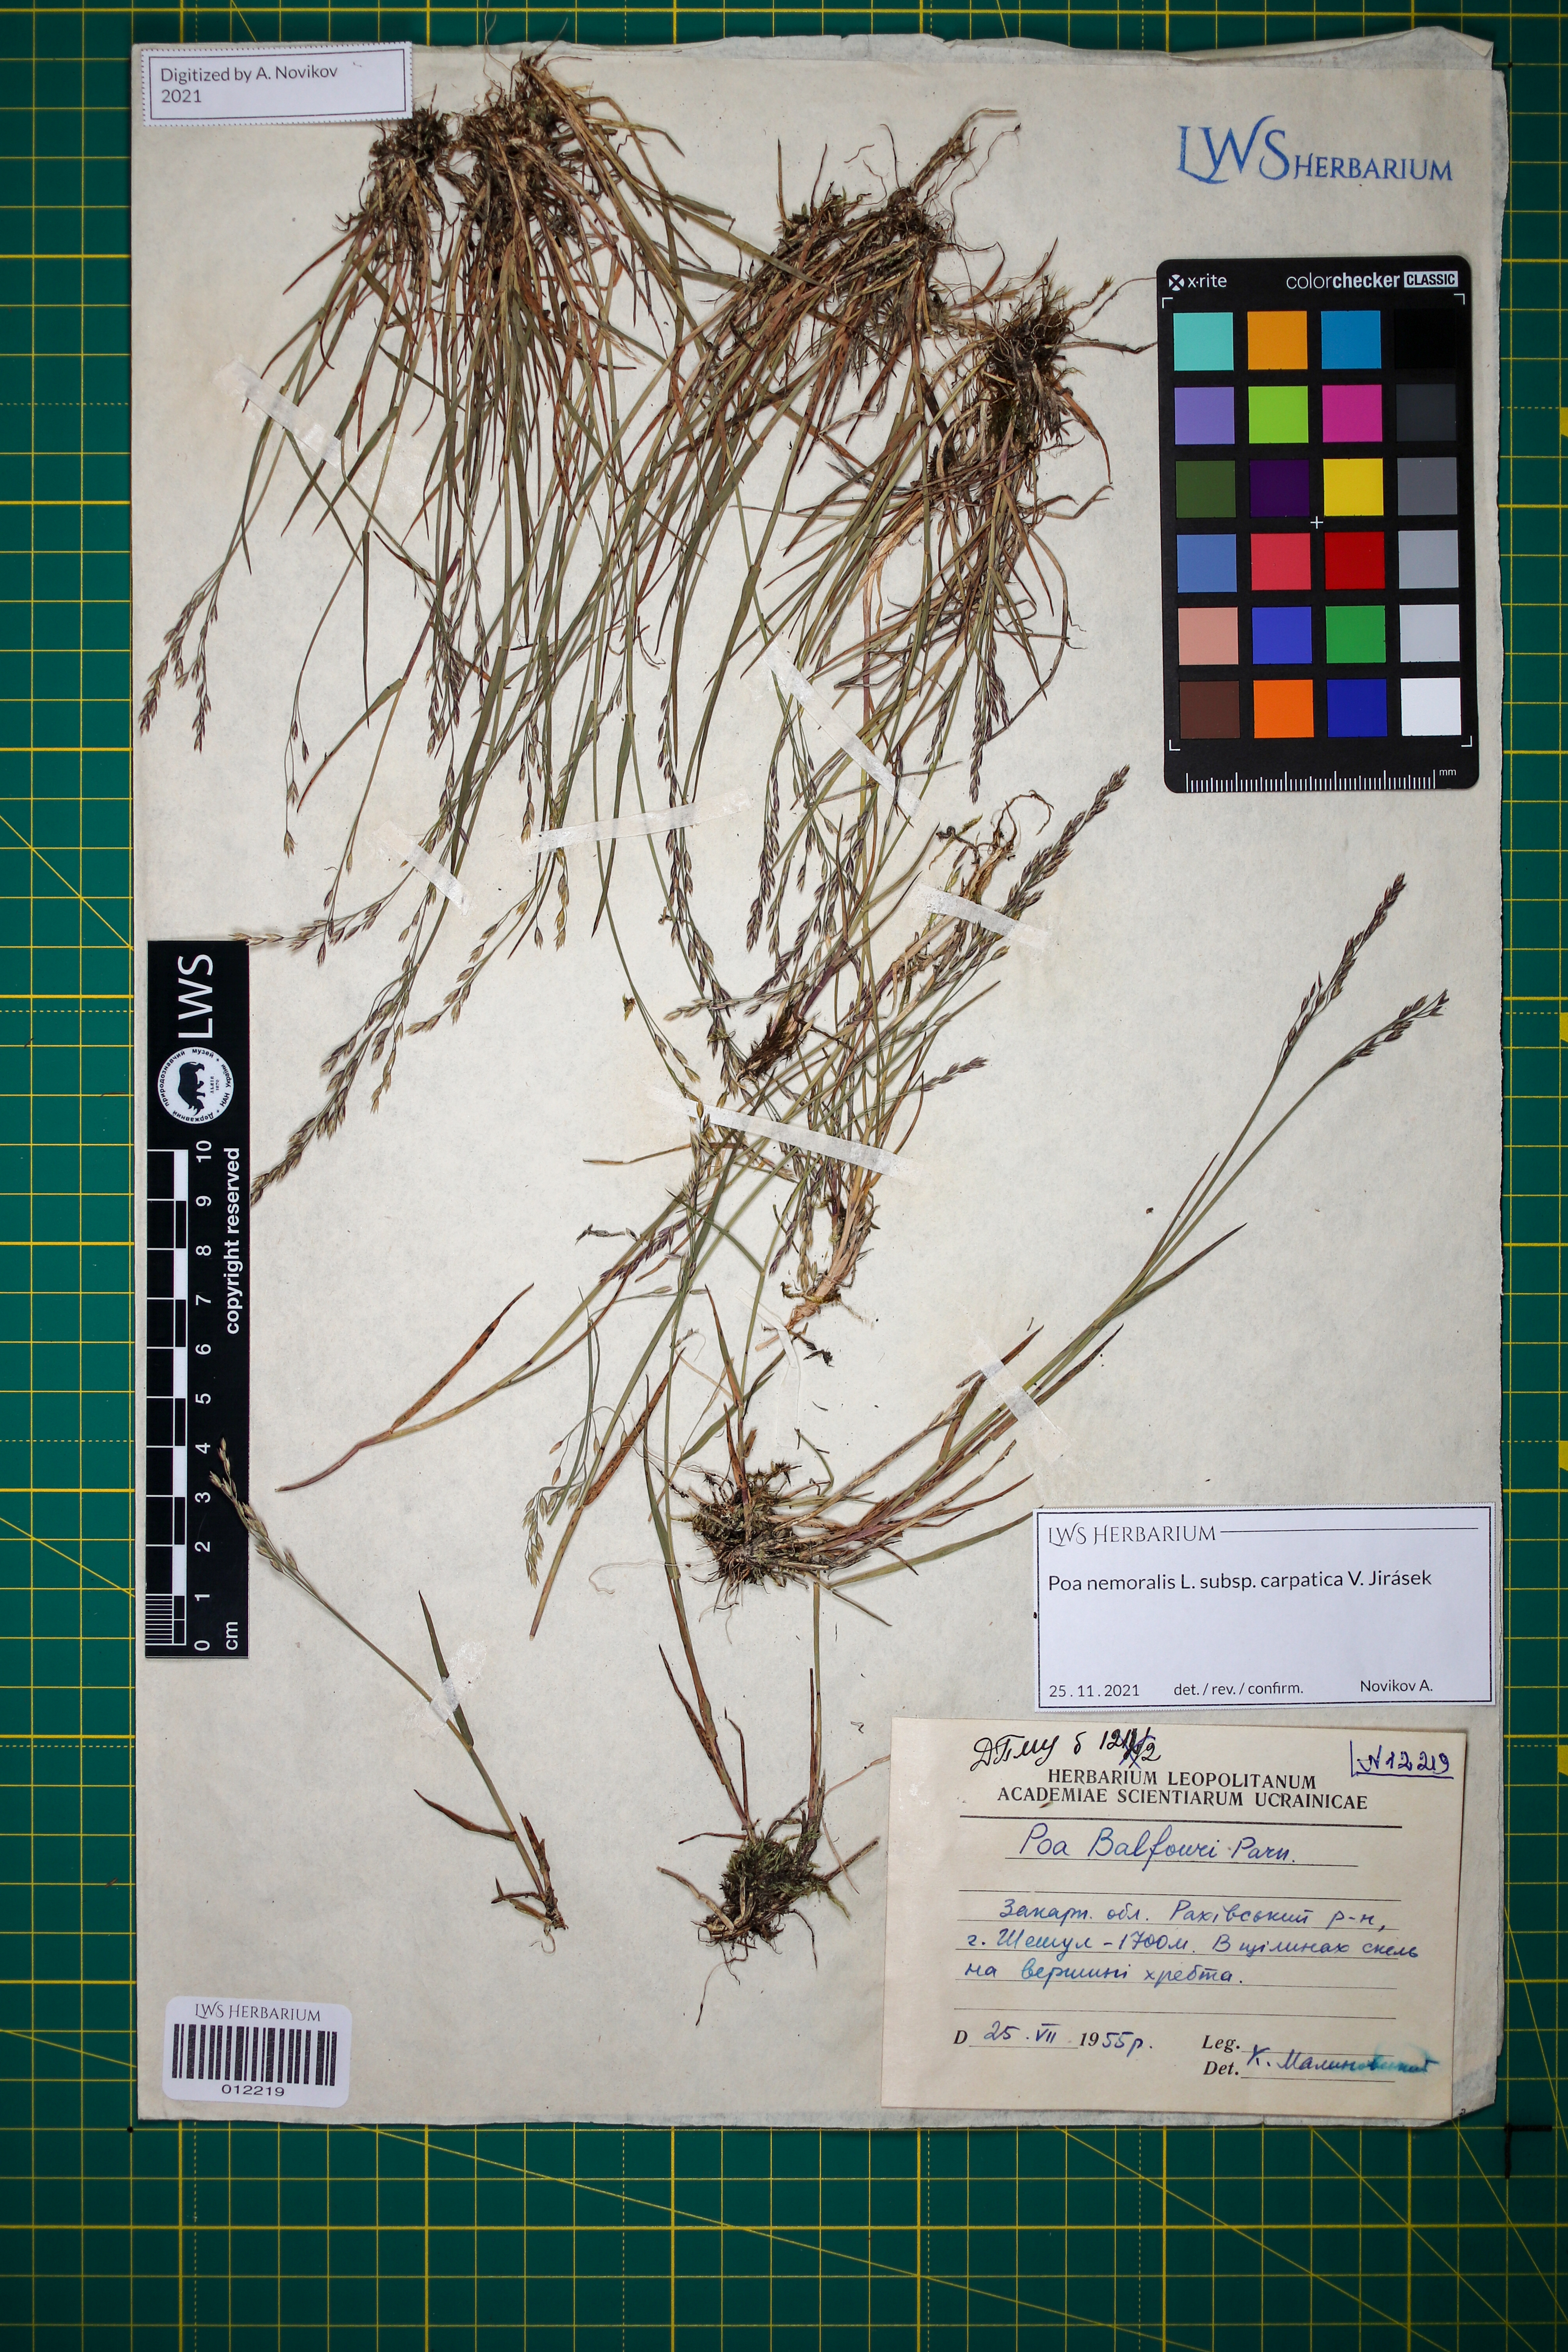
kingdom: Plantae
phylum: Tracheophyta
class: Liliopsida
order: Poales
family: Poaceae
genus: Poa
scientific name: Poa carpatica
